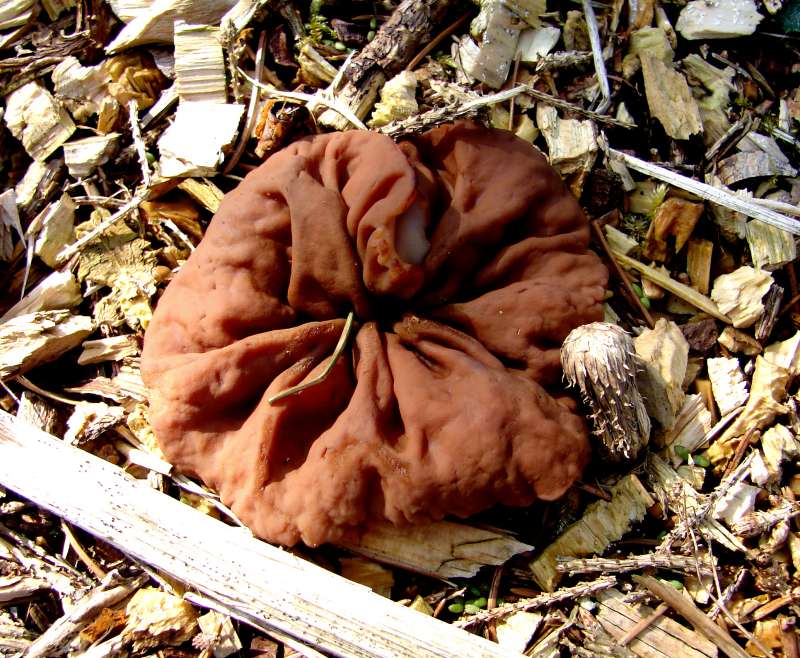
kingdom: Fungi
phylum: Ascomycota
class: Pezizomycetes
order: Pezizales
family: Discinaceae
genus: Discina
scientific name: Discina ancilis
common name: udbredt stenmorkel
